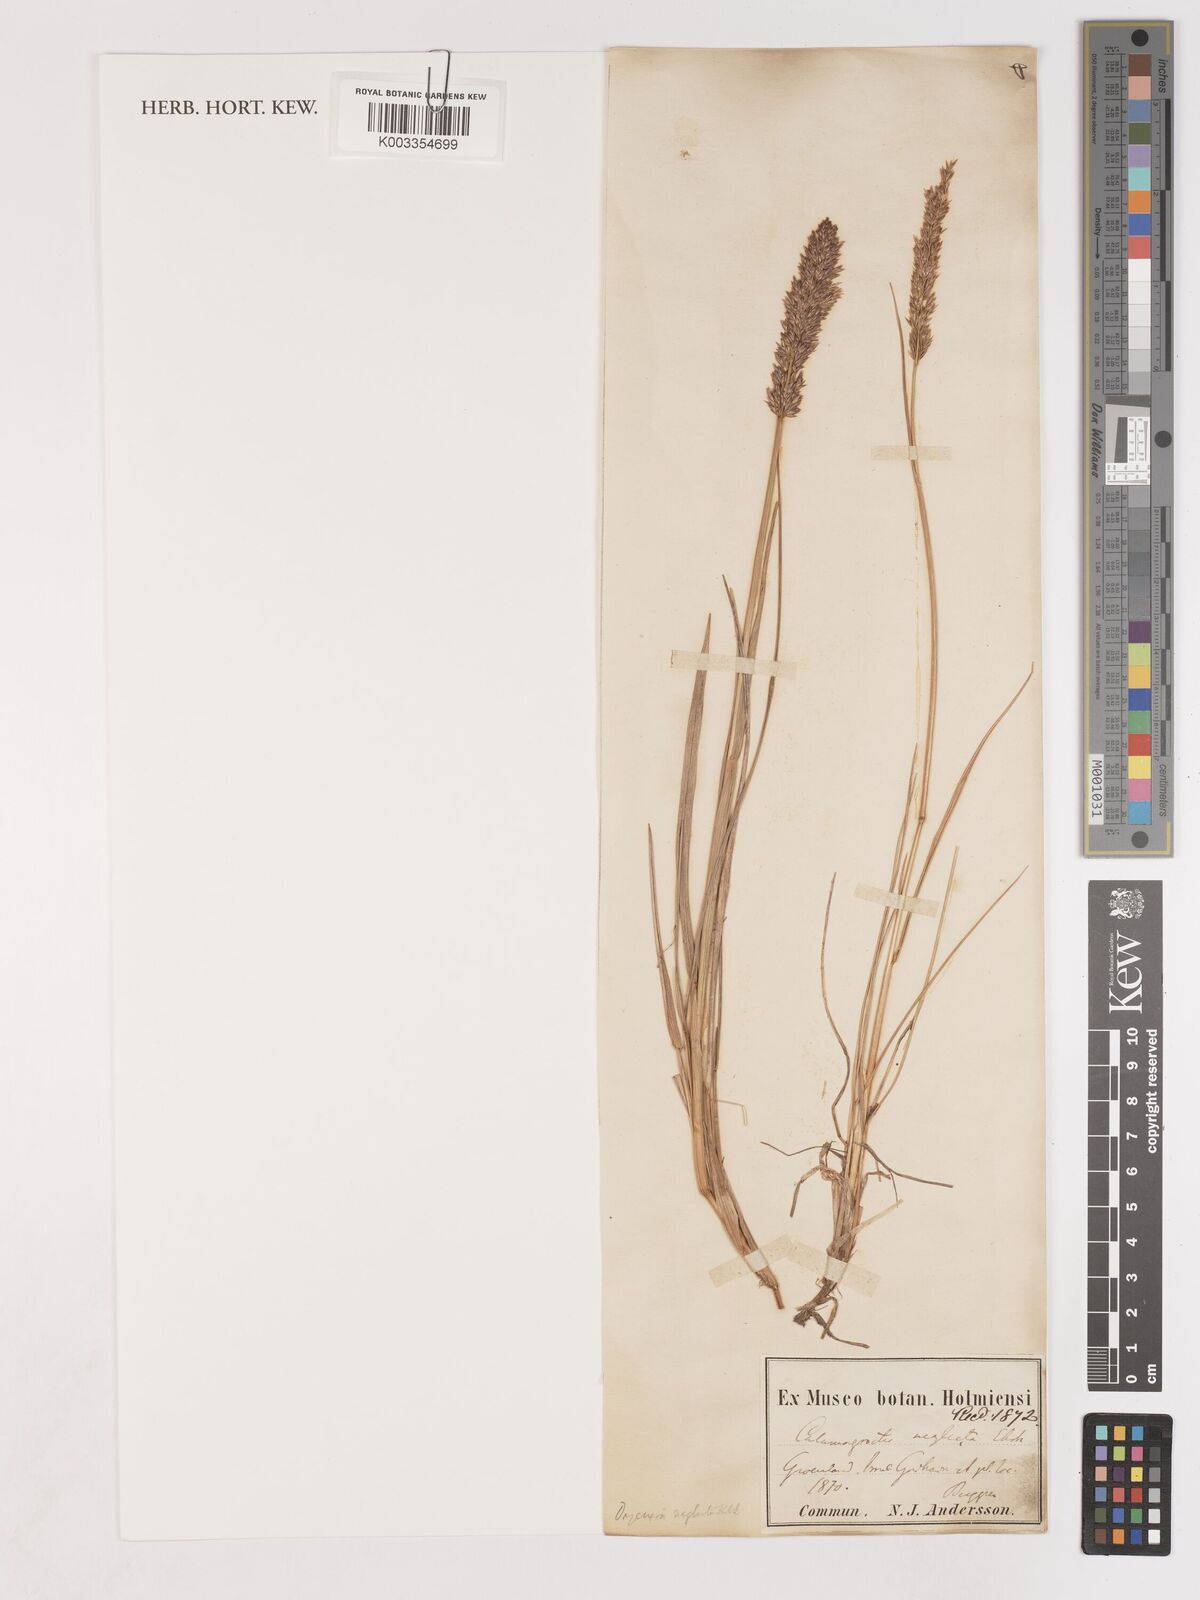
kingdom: Plantae
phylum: Tracheophyta
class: Liliopsida
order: Poales
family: Poaceae
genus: Achnatherum
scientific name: Achnatherum calamagrostis
